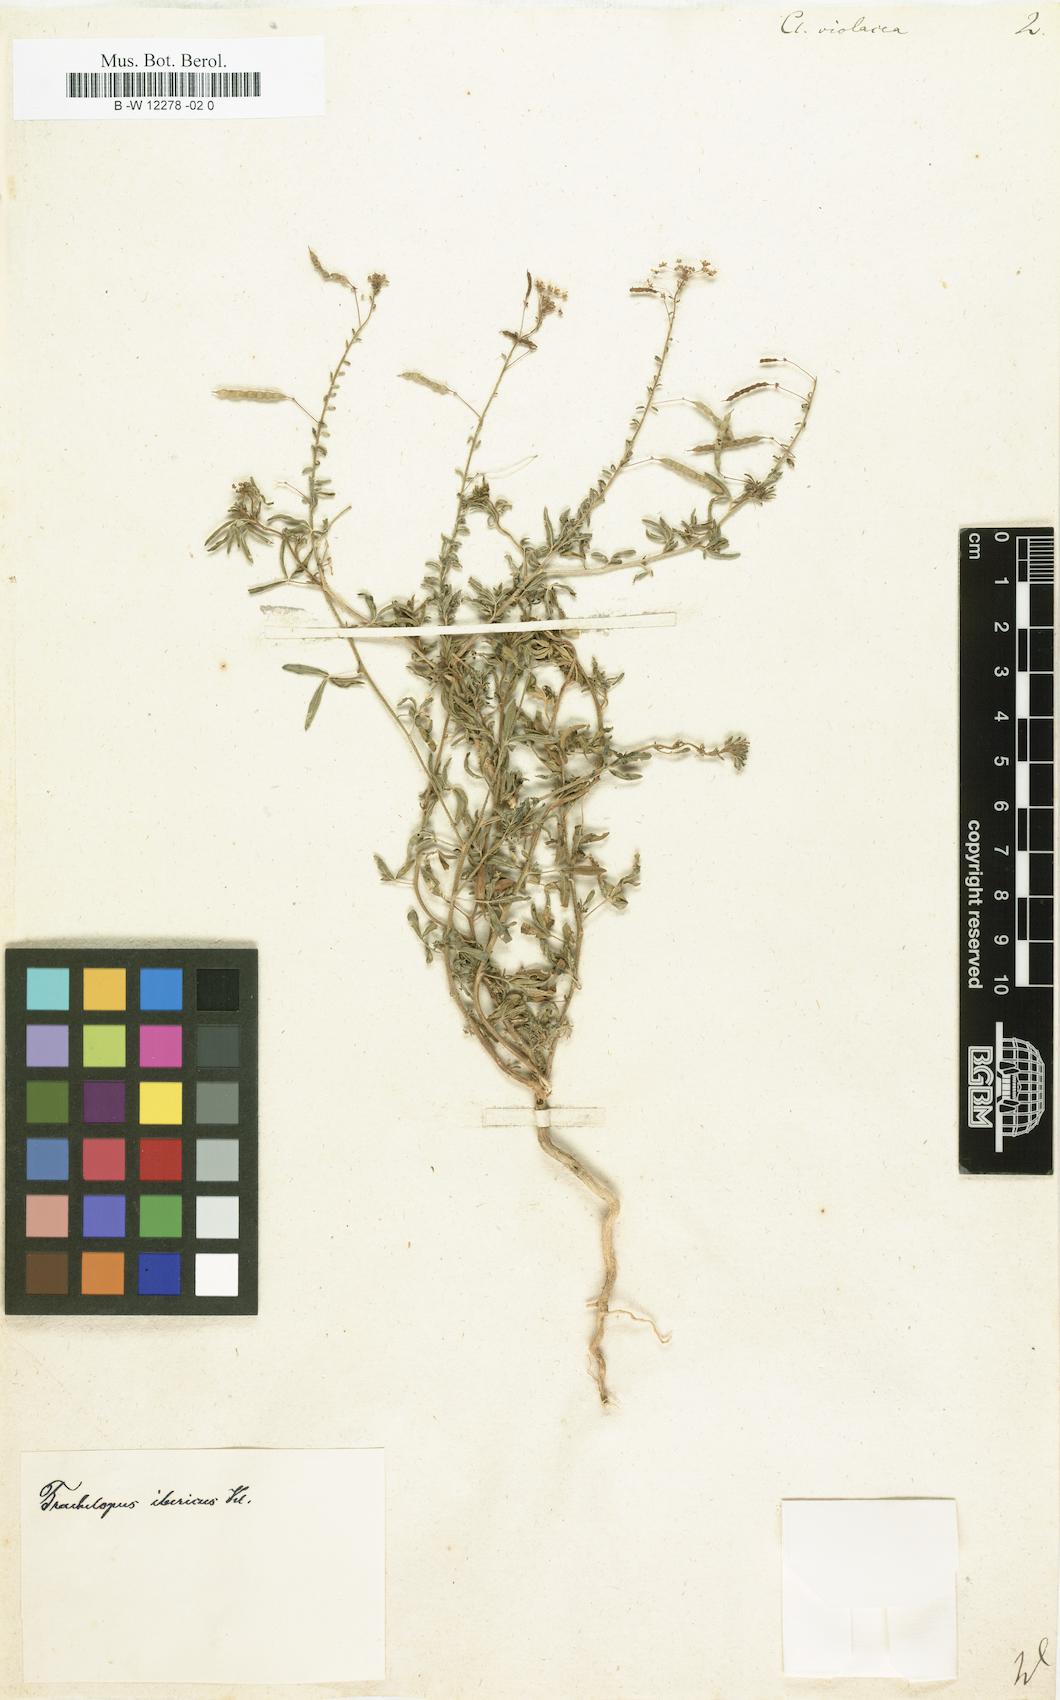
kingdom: Plantae
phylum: Tracheophyta
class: Magnoliopsida
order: Brassicales
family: Cleomaceae
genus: Cleome
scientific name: Cleome violacea
